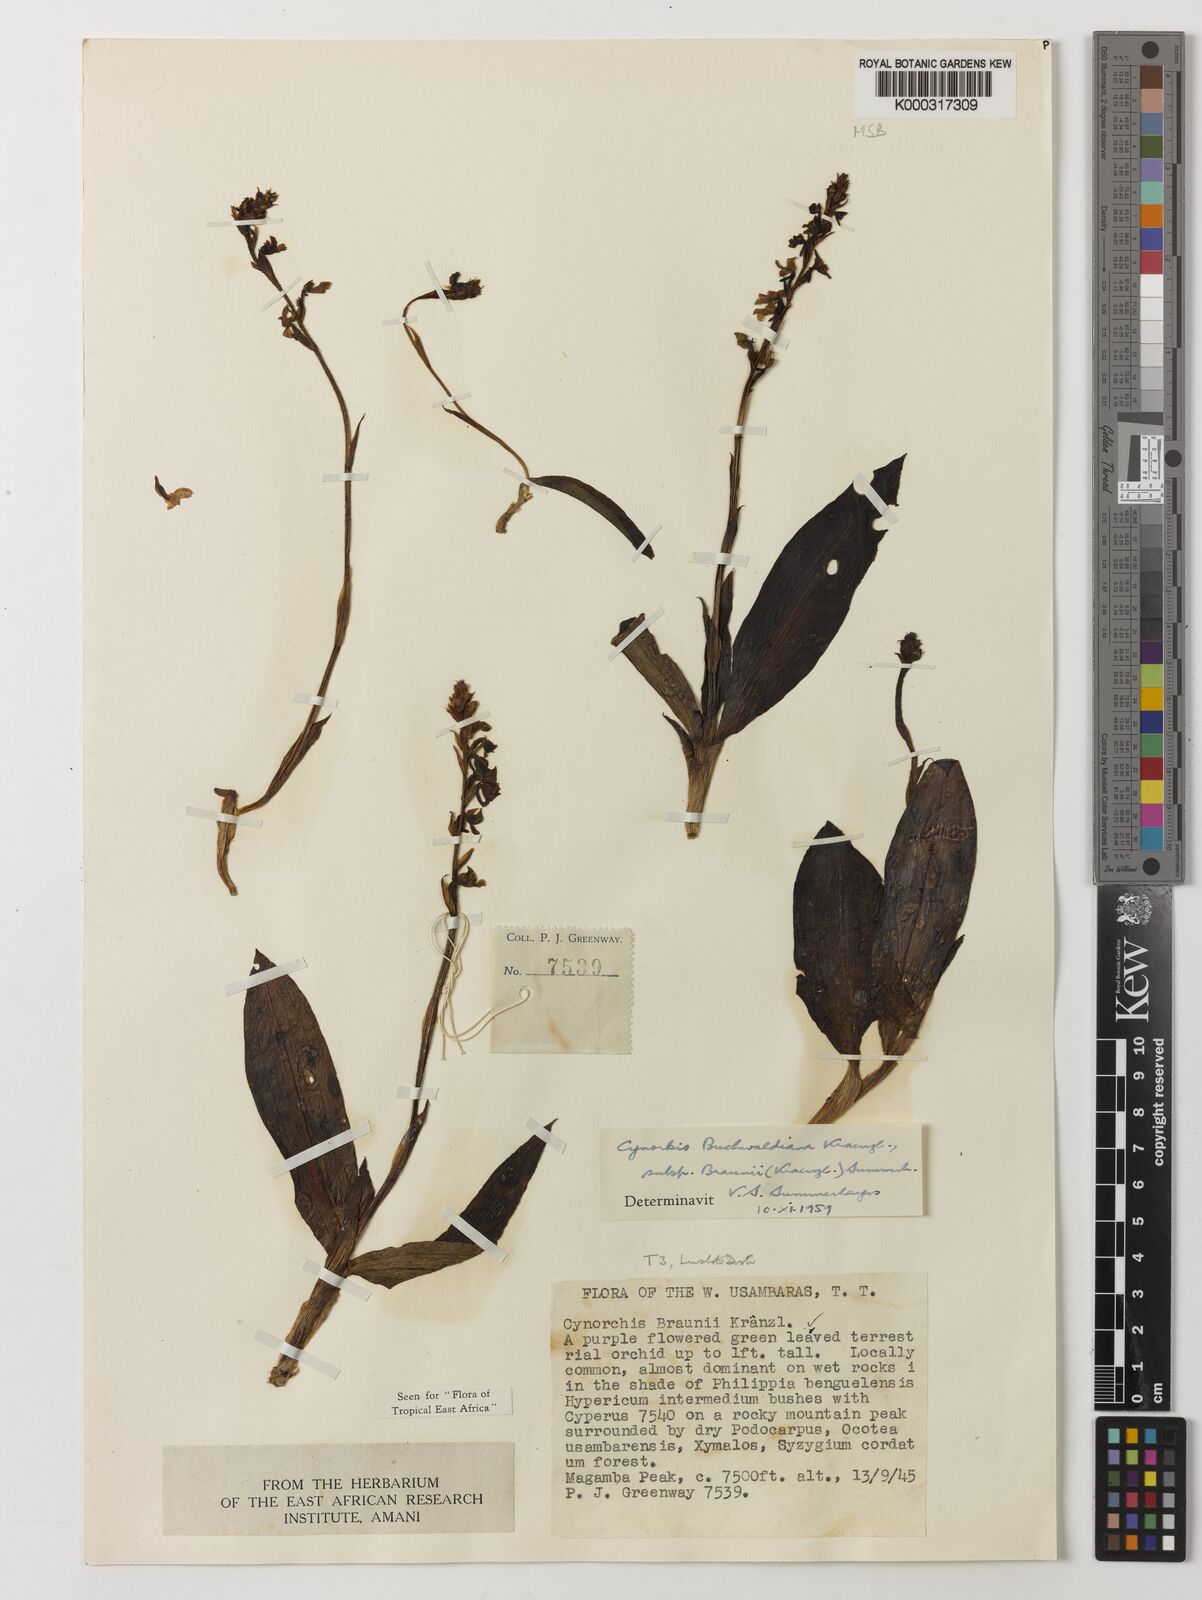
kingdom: Plantae
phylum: Tracheophyta
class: Liliopsida
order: Asparagales
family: Orchidaceae
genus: Cynorkis
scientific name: Cynorkis buchwaldiana
